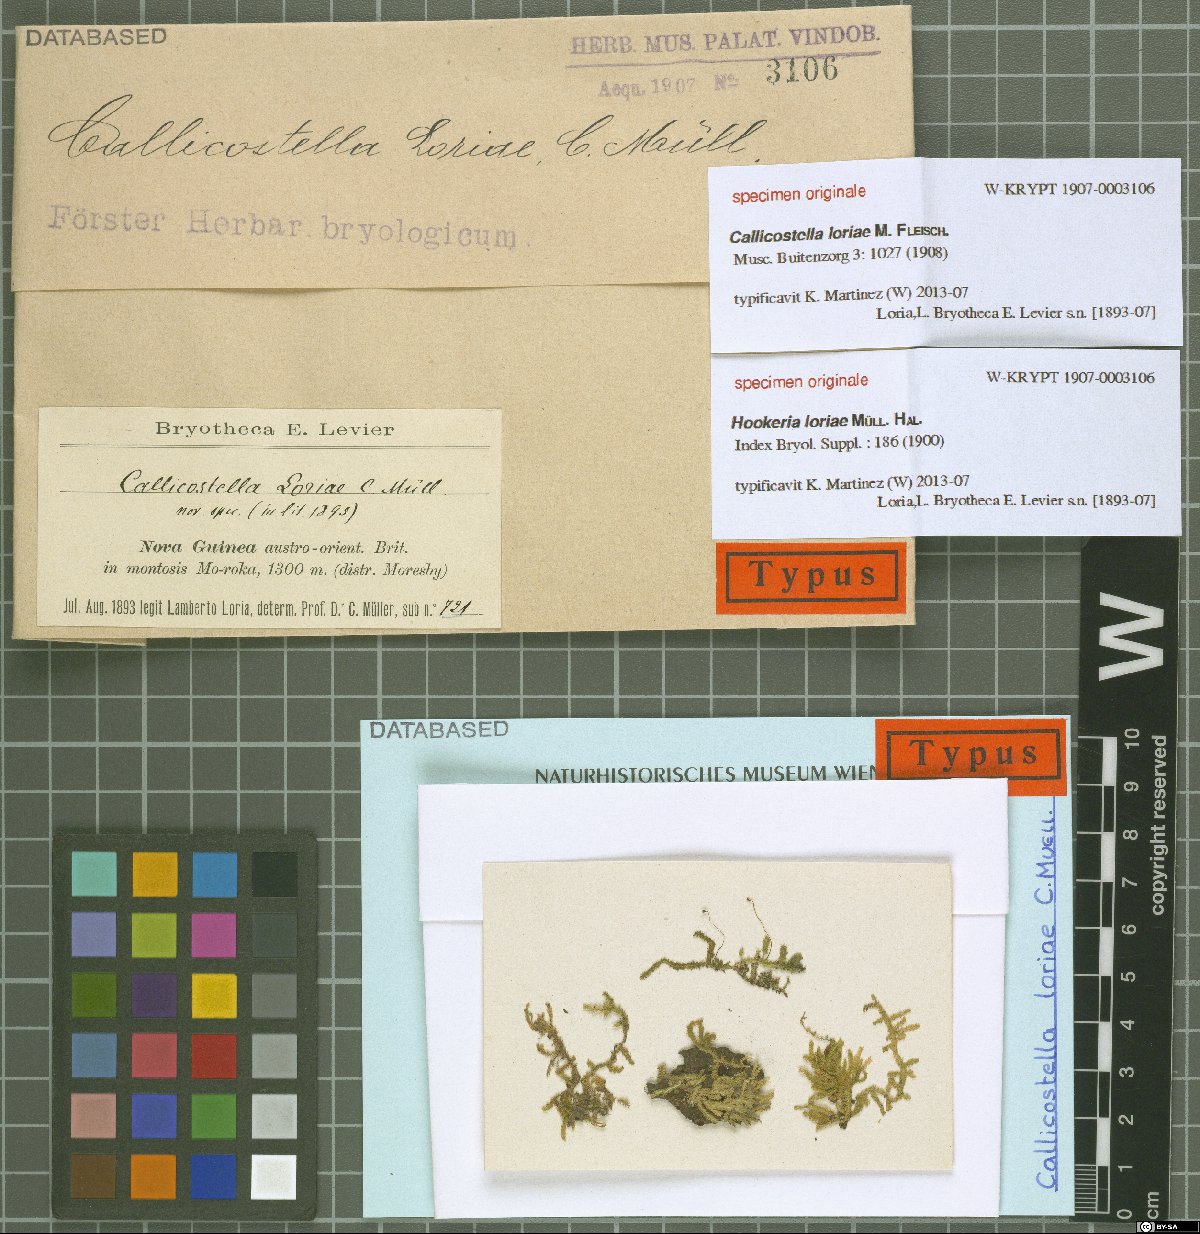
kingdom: Plantae
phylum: Bryophyta
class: Bryopsida
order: Hookeriales
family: Pilotrichaceae
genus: Callicostella
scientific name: Callicostella loriae
